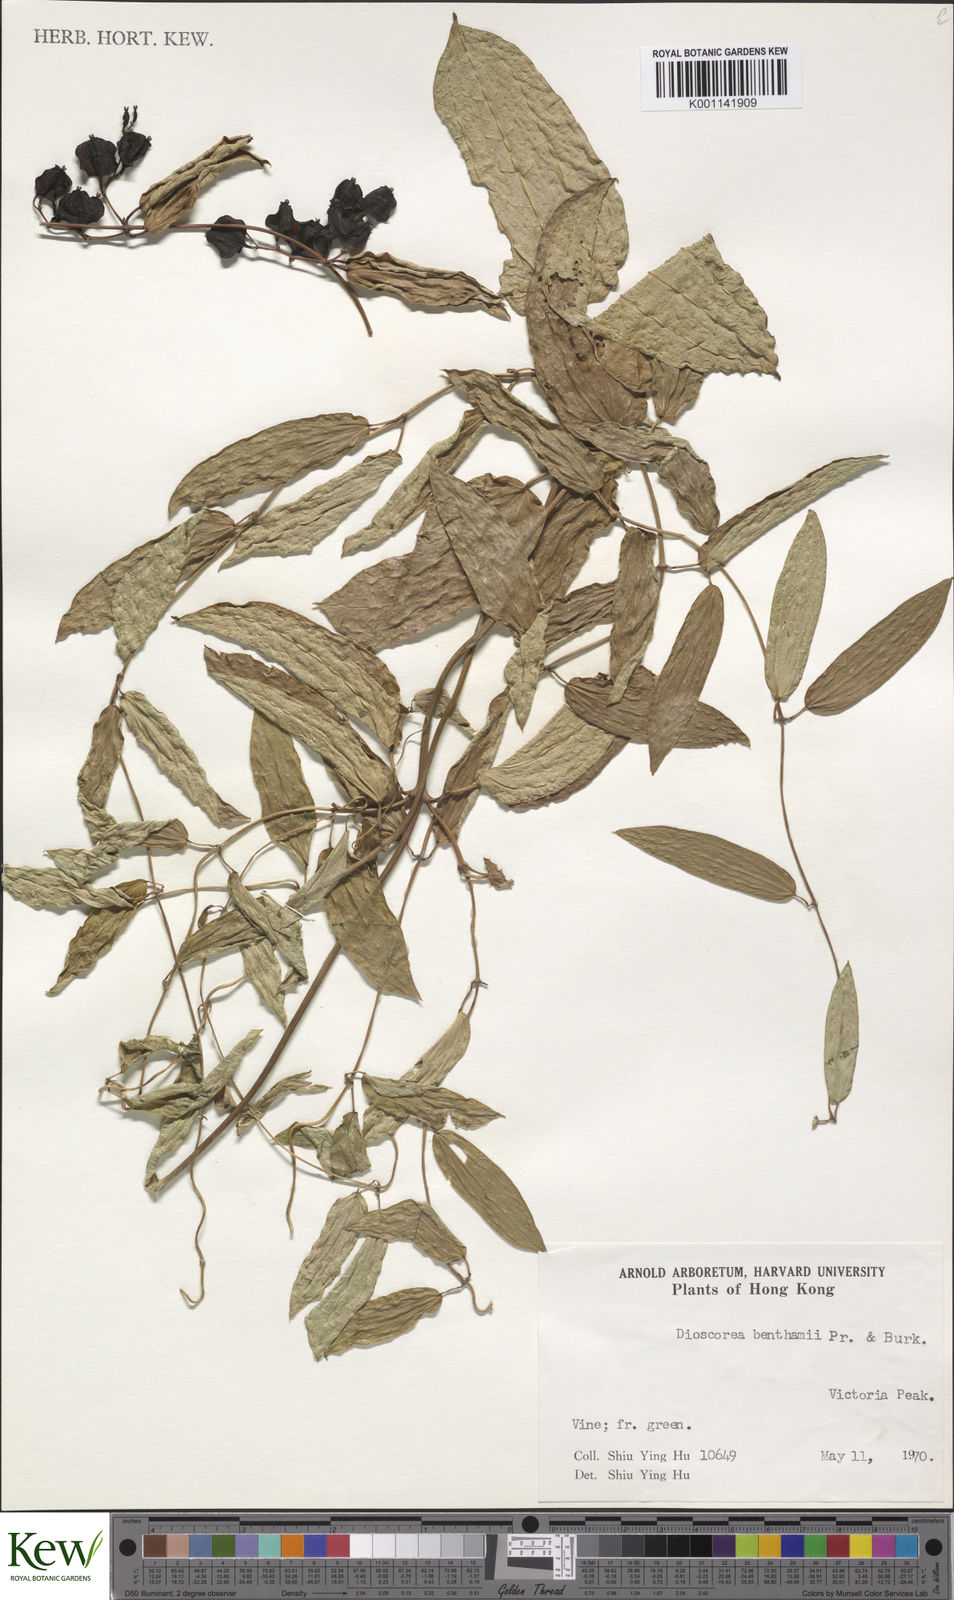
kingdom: Plantae
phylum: Tracheophyta
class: Liliopsida
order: Dioscoreales
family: Dioscoreaceae
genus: Dioscorea
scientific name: Dioscorea benthamii
